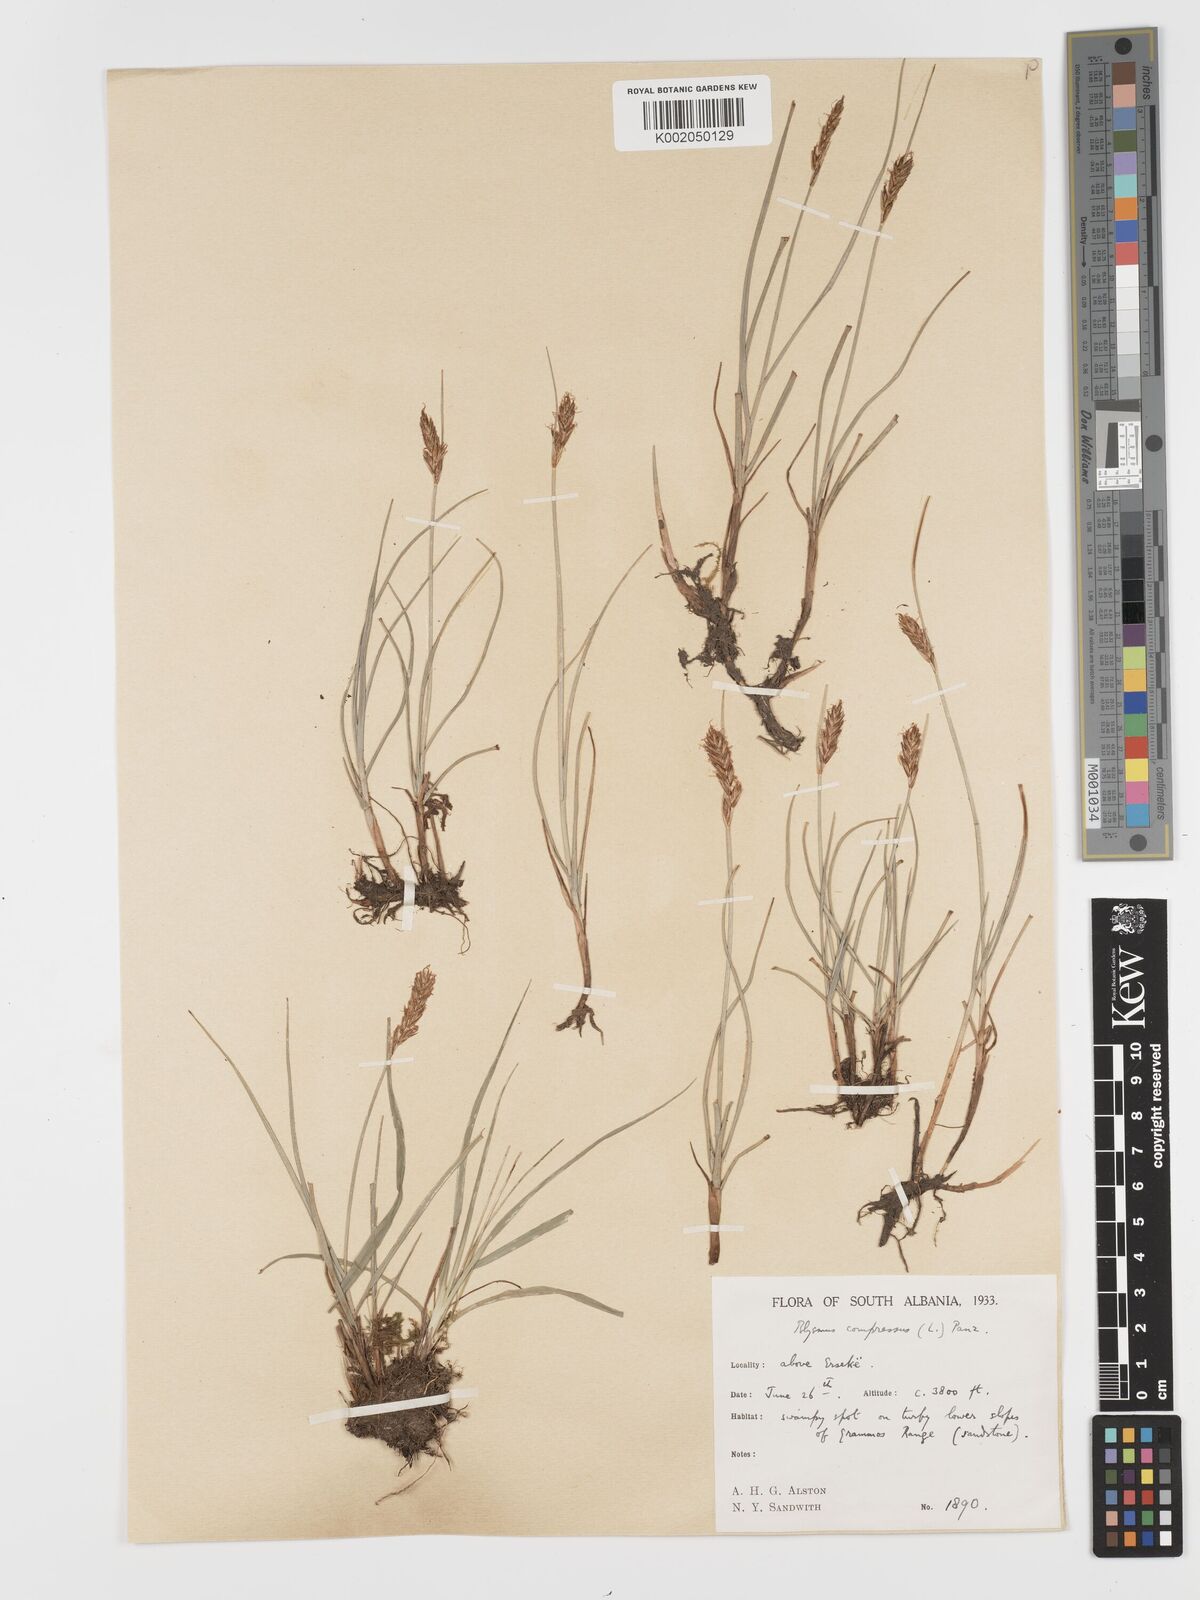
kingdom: Plantae
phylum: Tracheophyta
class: Liliopsida
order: Poales
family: Cyperaceae
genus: Blysmus
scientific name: Blysmus compressus
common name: Flat-sedge
